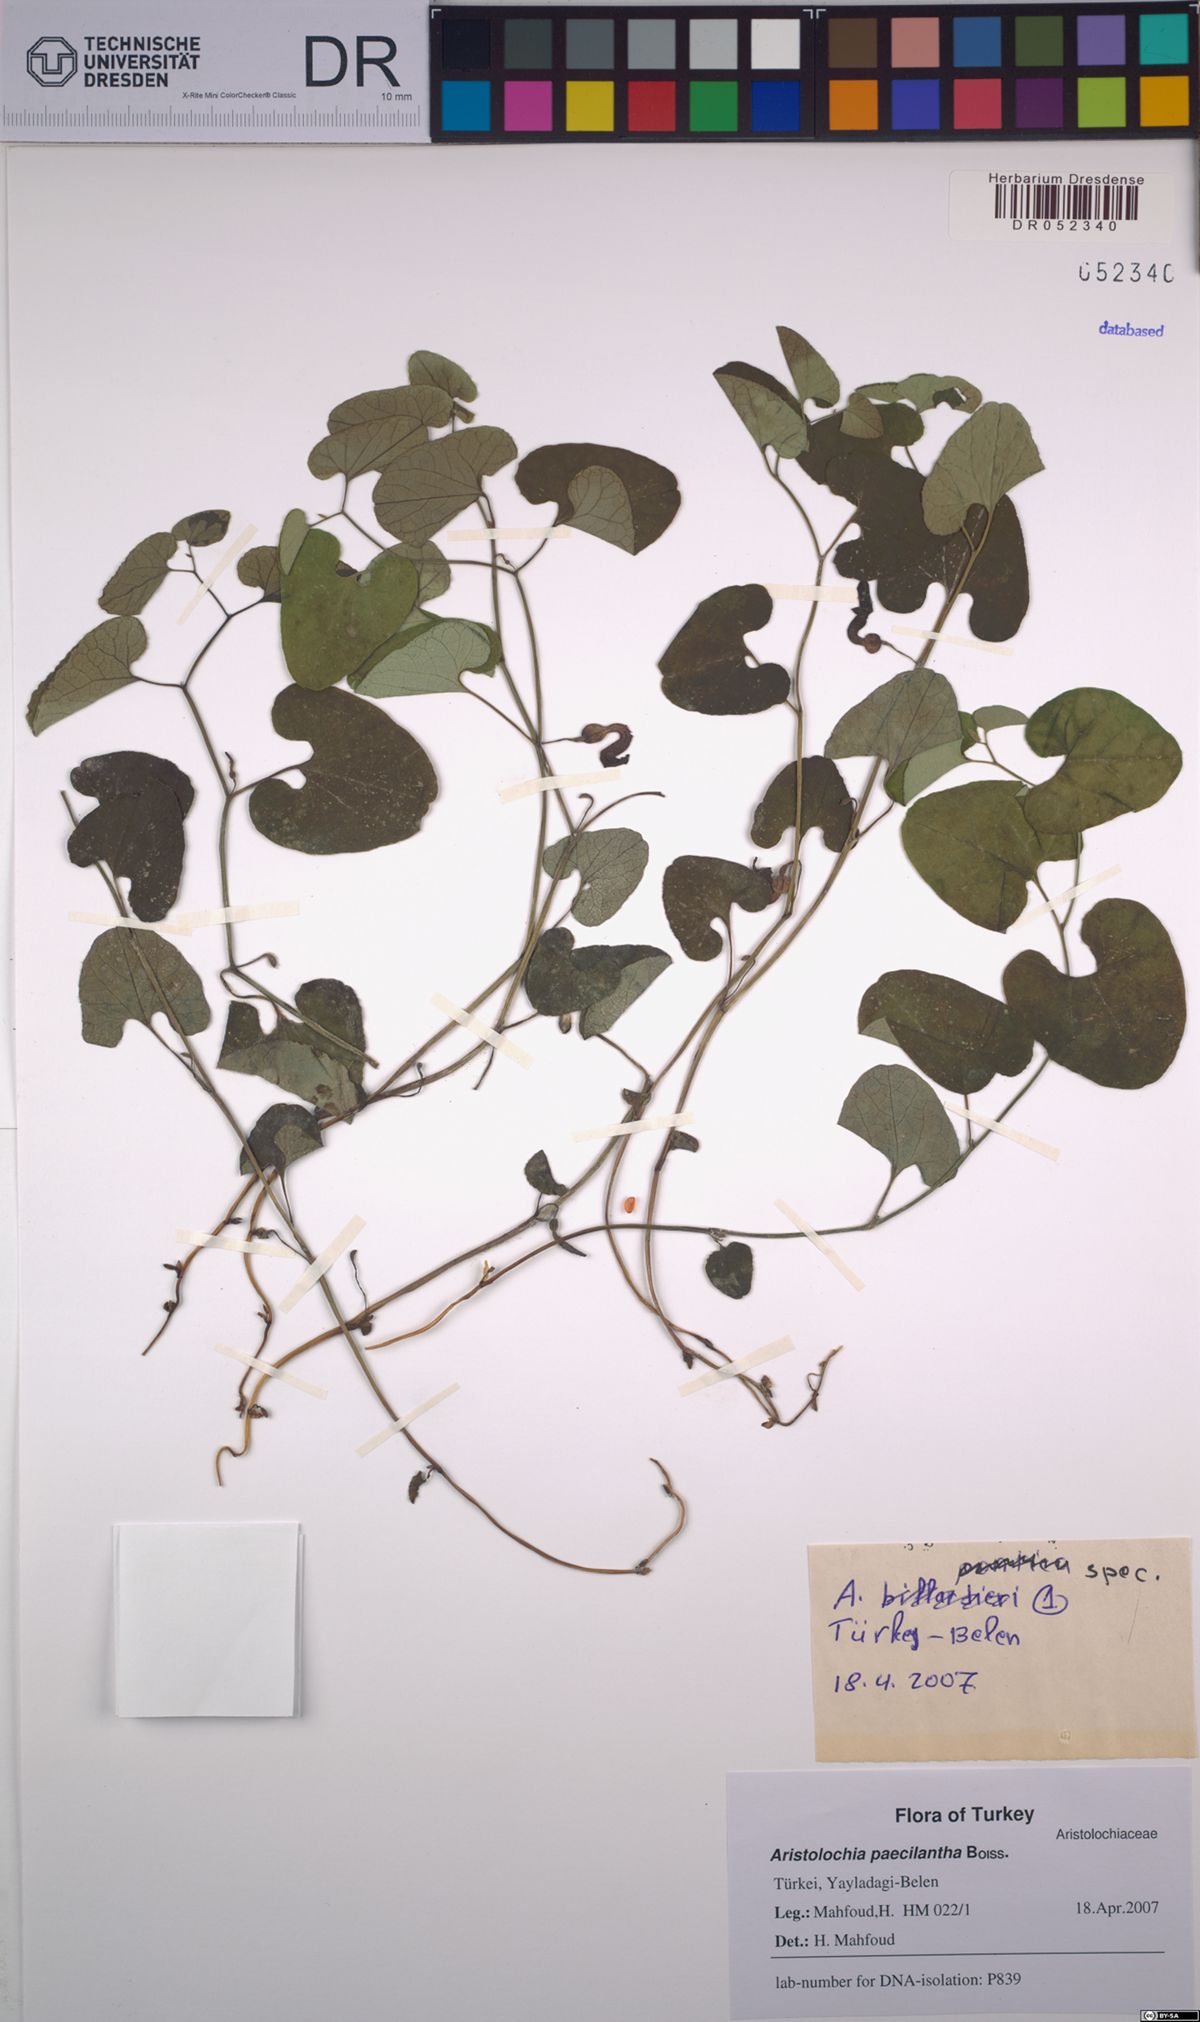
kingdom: Plantae
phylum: Tracheophyta
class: Magnoliopsida
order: Piperales
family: Aristolochiaceae
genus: Aristolochia
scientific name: Aristolochia paecilantha
